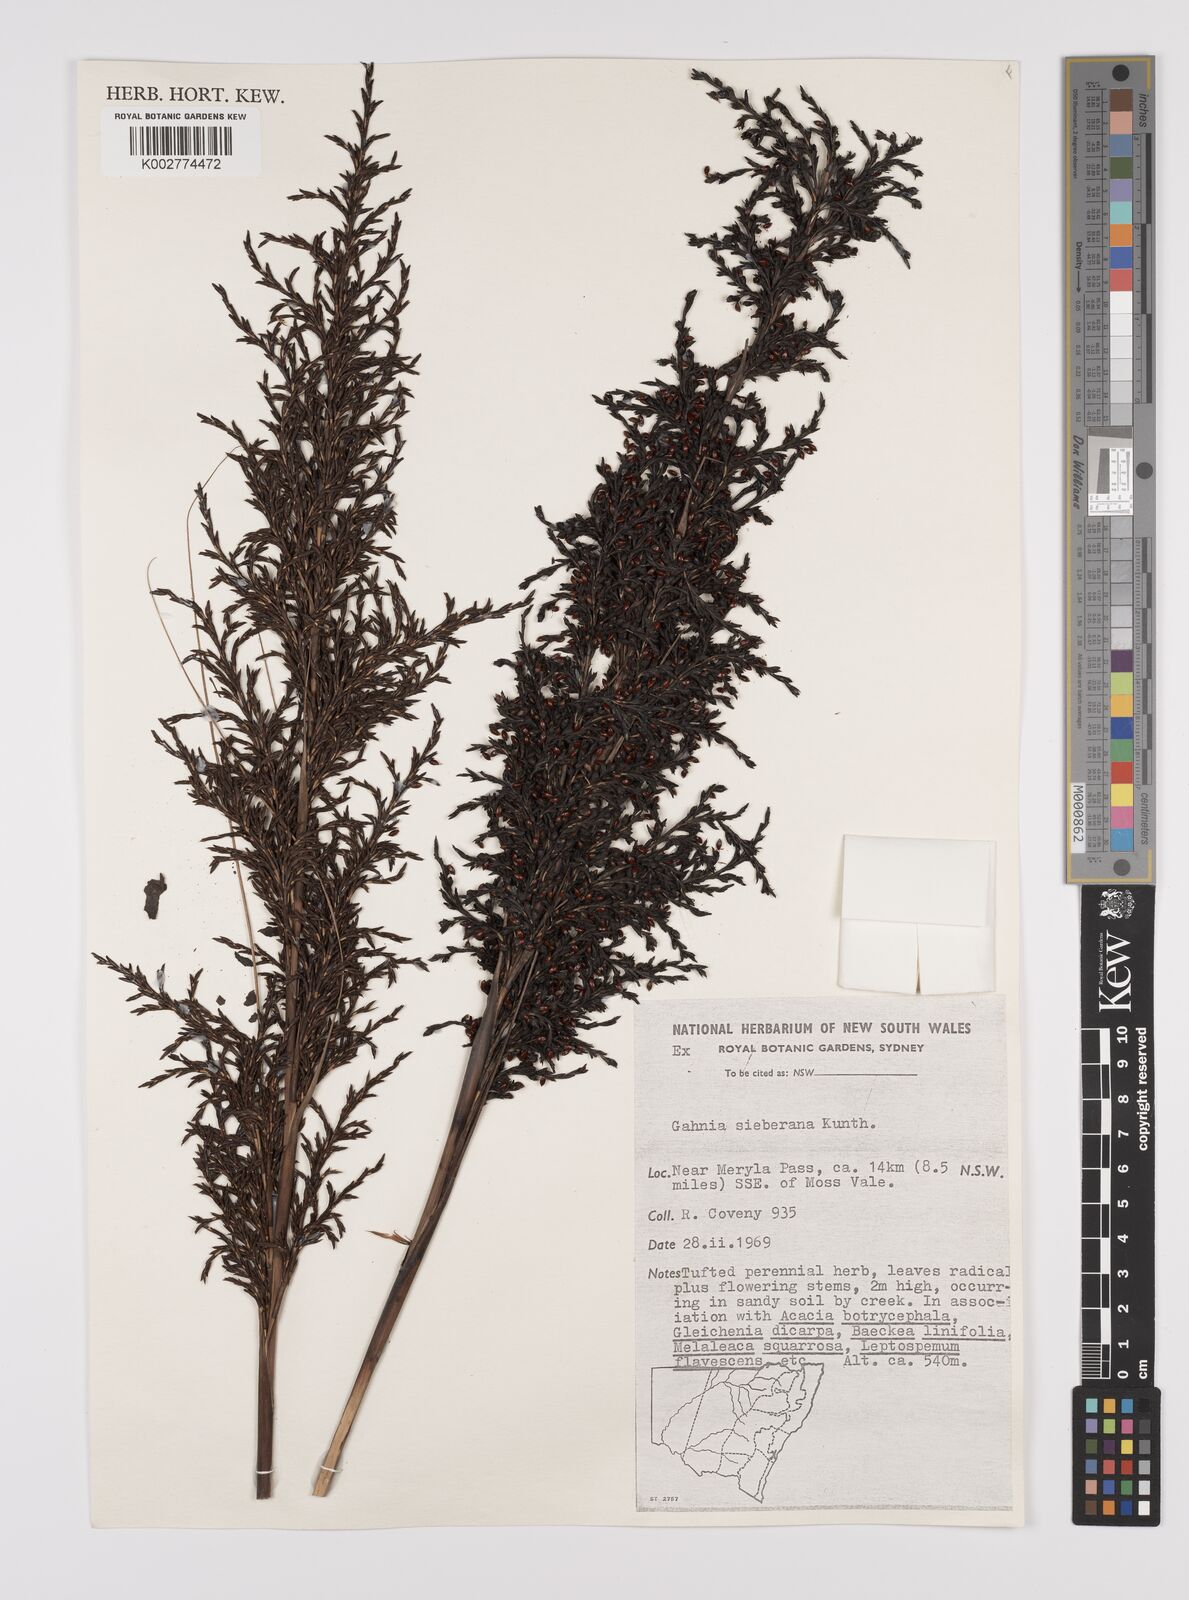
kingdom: Plantae
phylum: Tracheophyta
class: Liliopsida
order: Poales
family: Cyperaceae
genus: Gahnia
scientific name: Gahnia sieberiana
